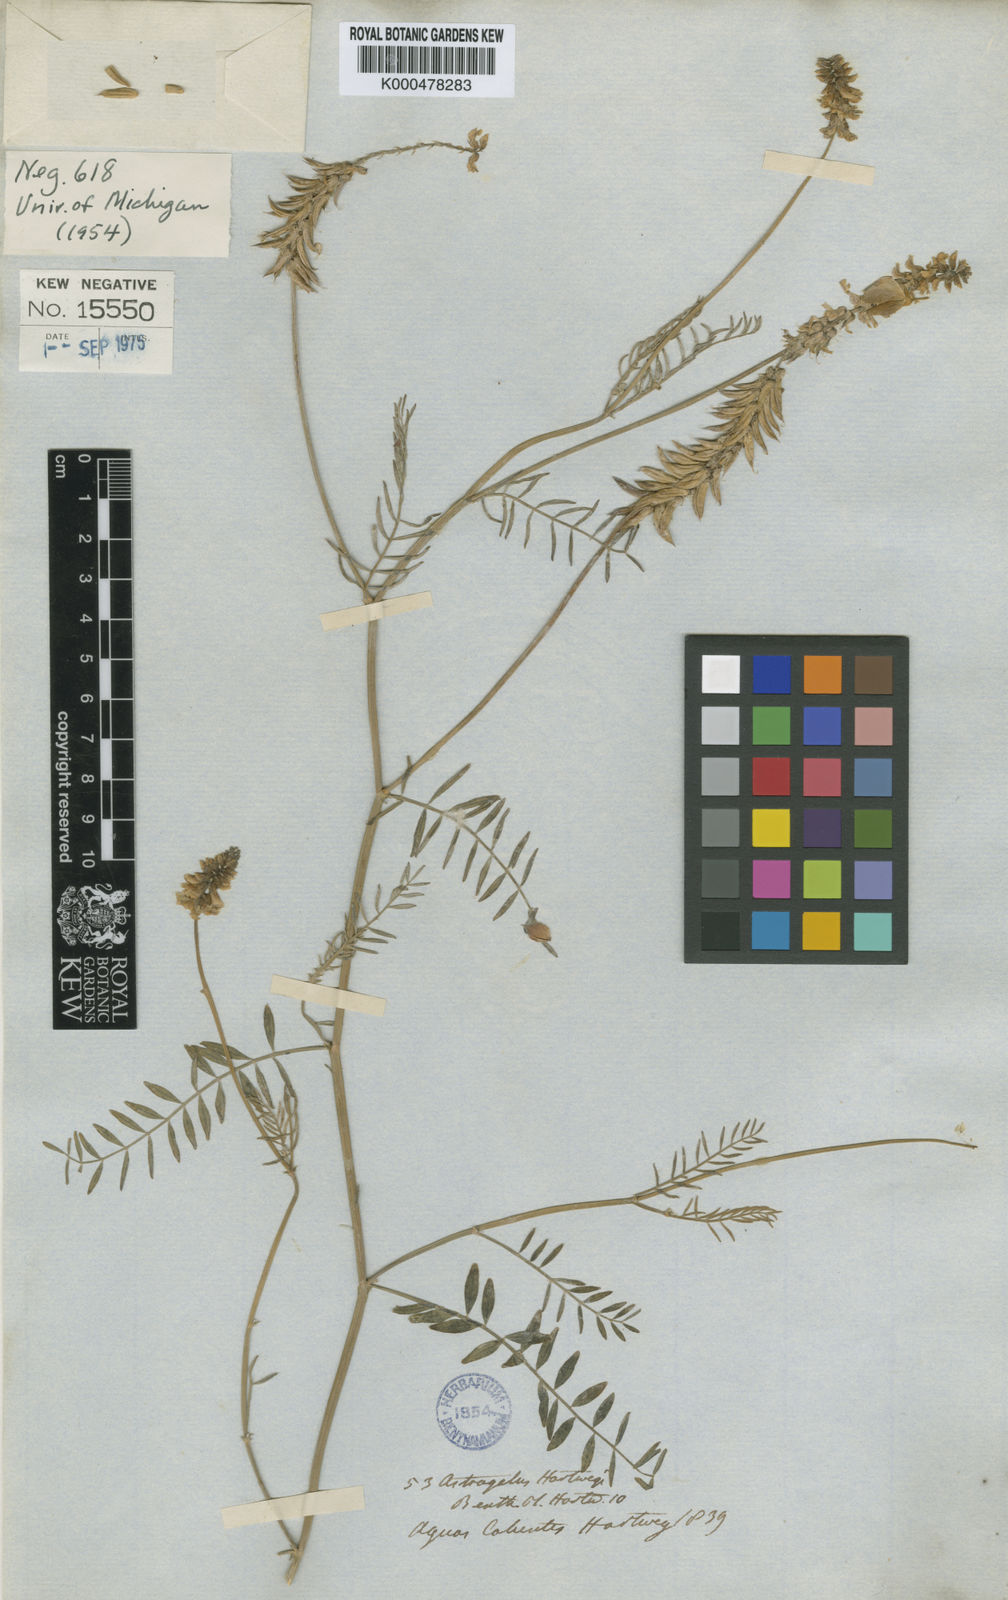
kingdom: Plantae
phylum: Tracheophyta
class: Magnoliopsida
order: Fabales
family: Fabaceae
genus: Astragalus
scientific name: Astragalus hartwegii
